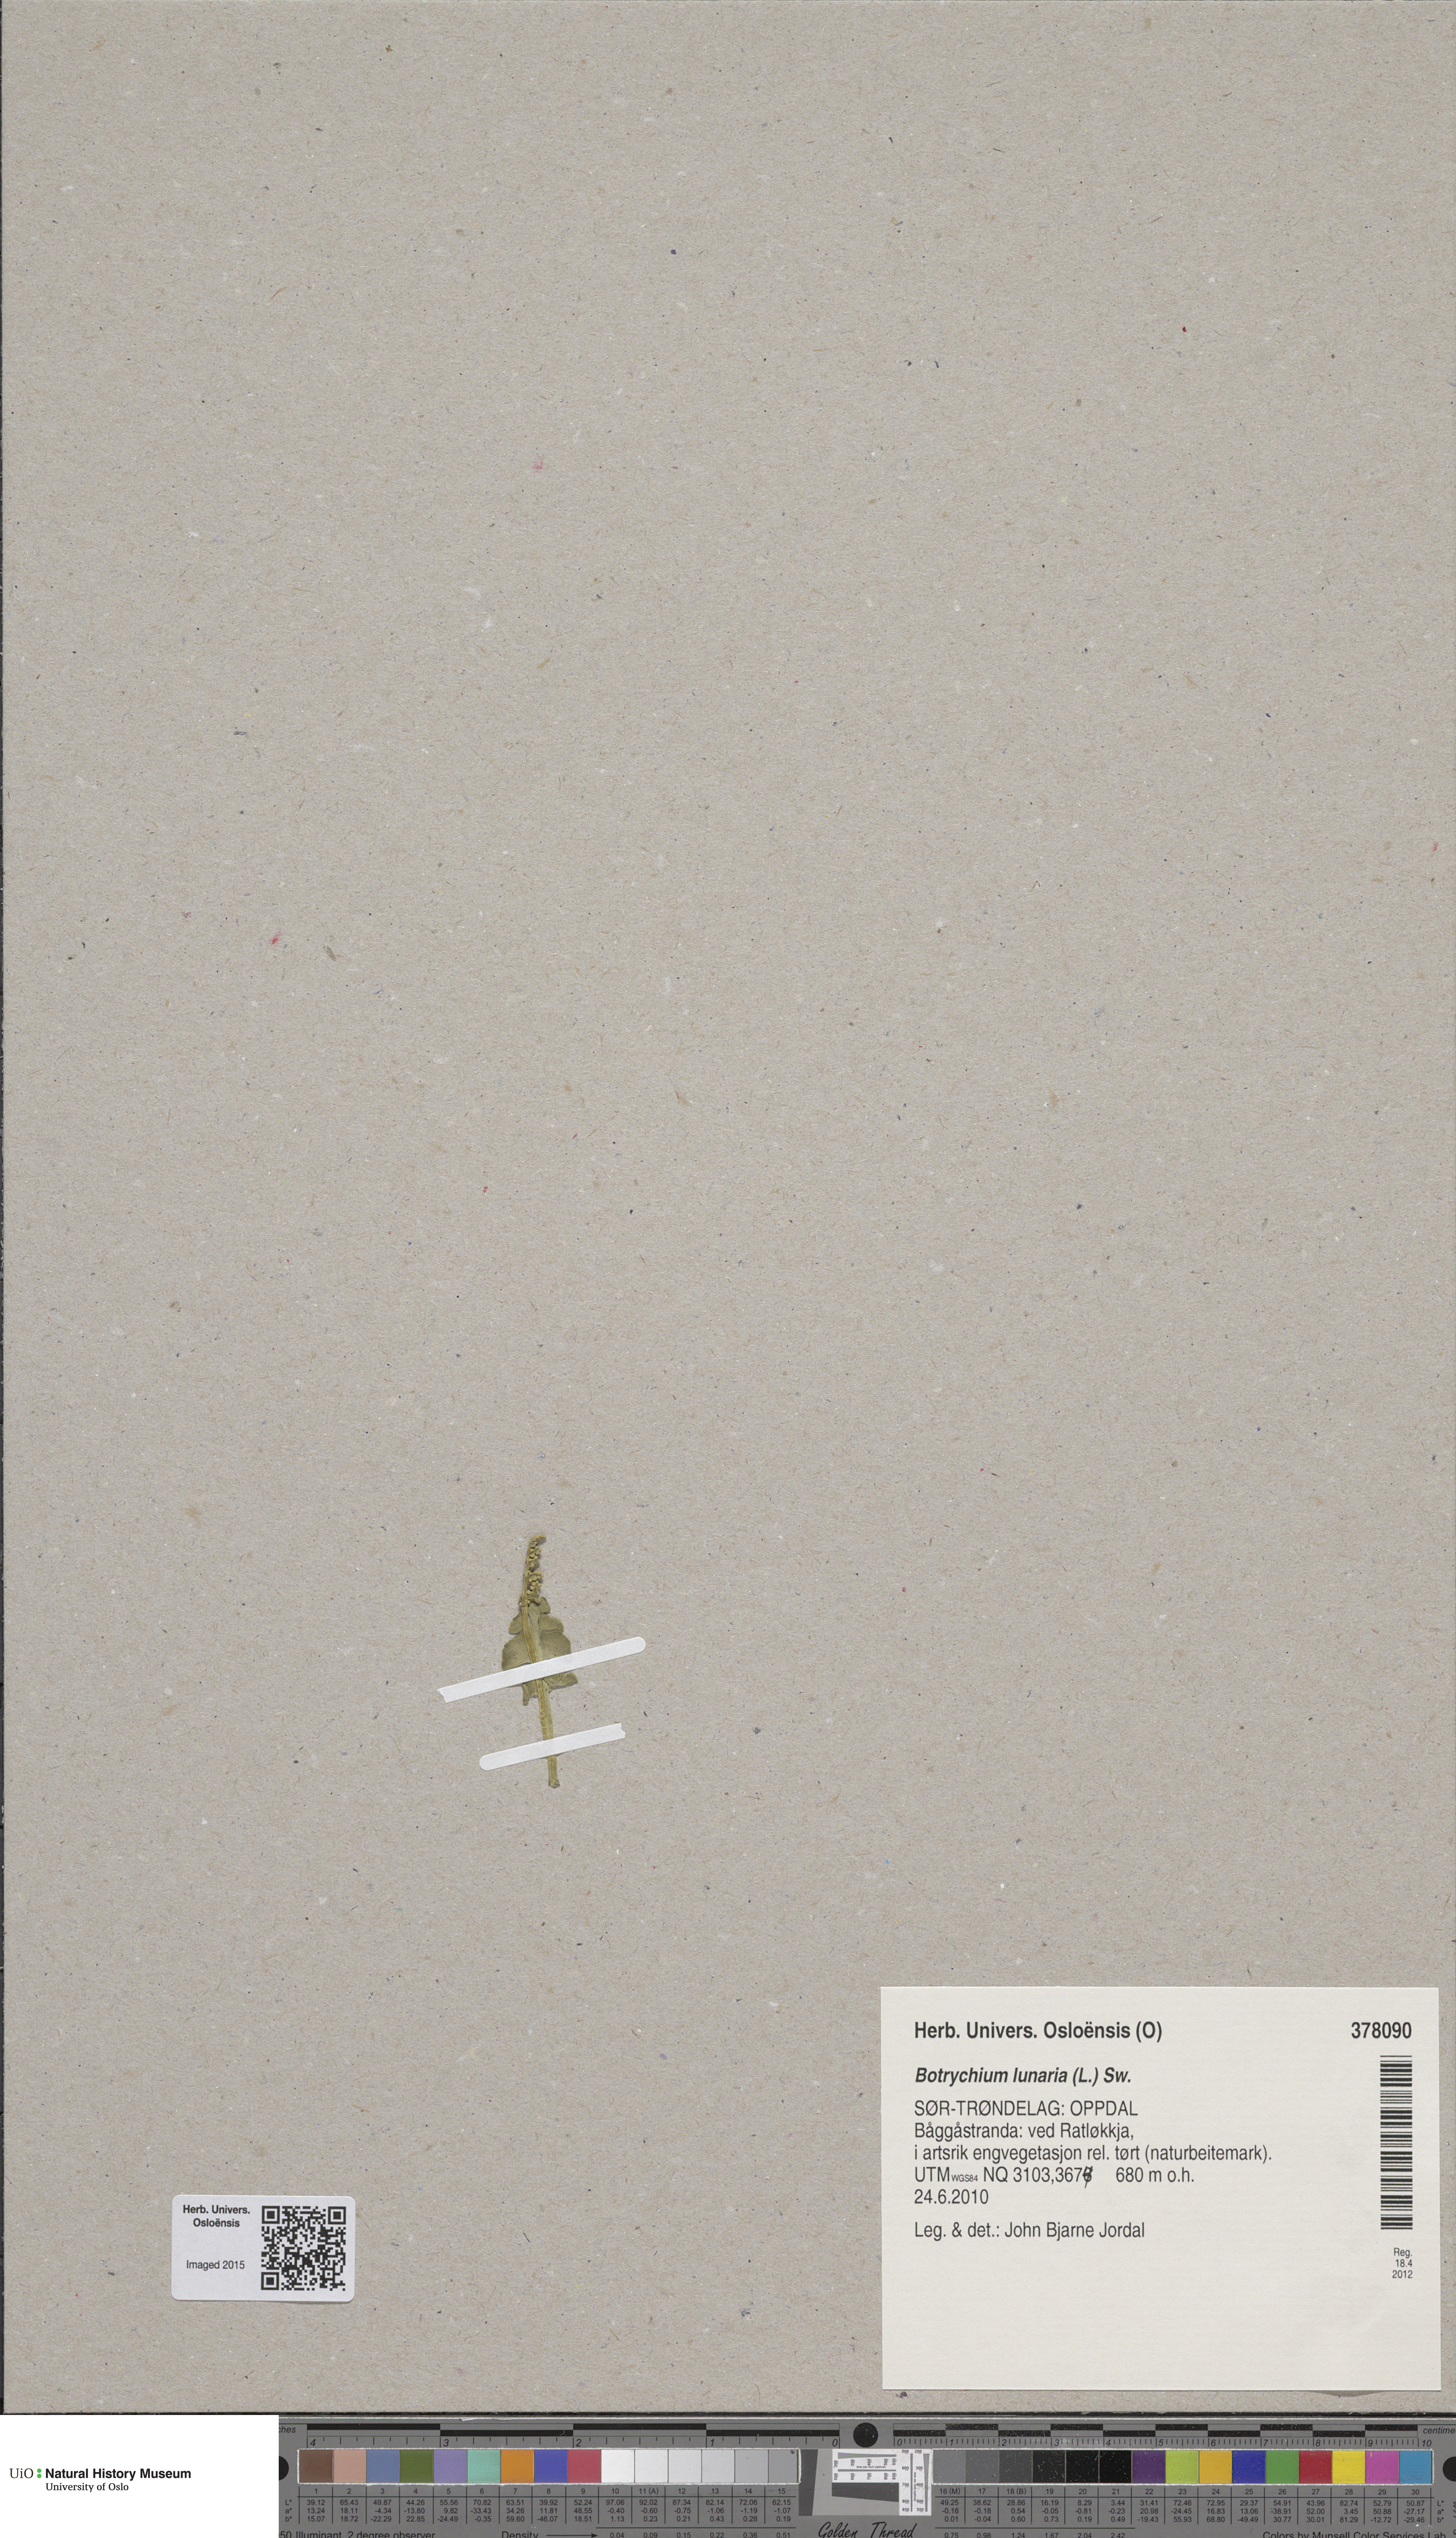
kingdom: Plantae
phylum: Tracheophyta
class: Polypodiopsida
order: Ophioglossales
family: Ophioglossaceae
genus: Botrychium
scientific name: Botrychium lunaria
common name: Moonwort
